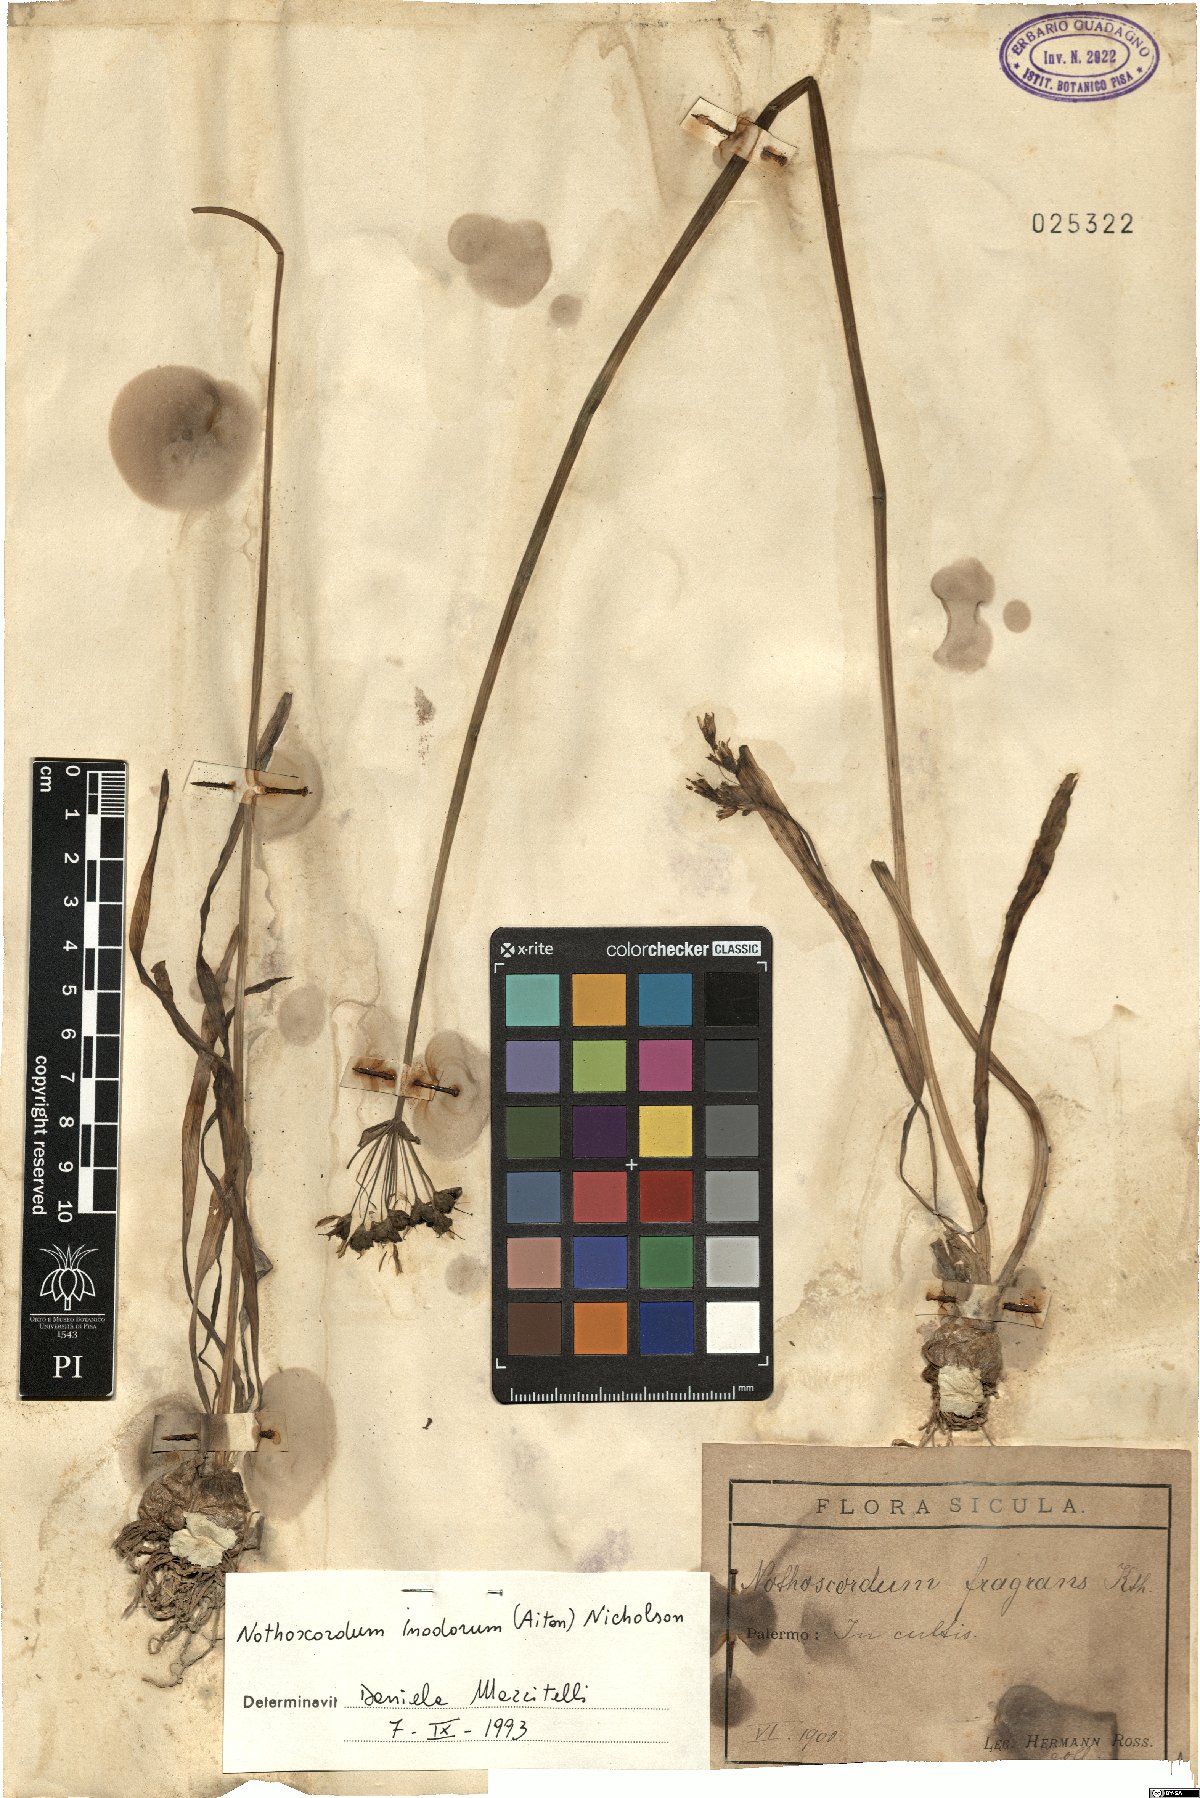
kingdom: Plantae
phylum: Tracheophyta
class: Liliopsida
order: Asparagales
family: Amaryllidaceae
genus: Allium
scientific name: Allium neapolitanum
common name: Neapolitan garlic
